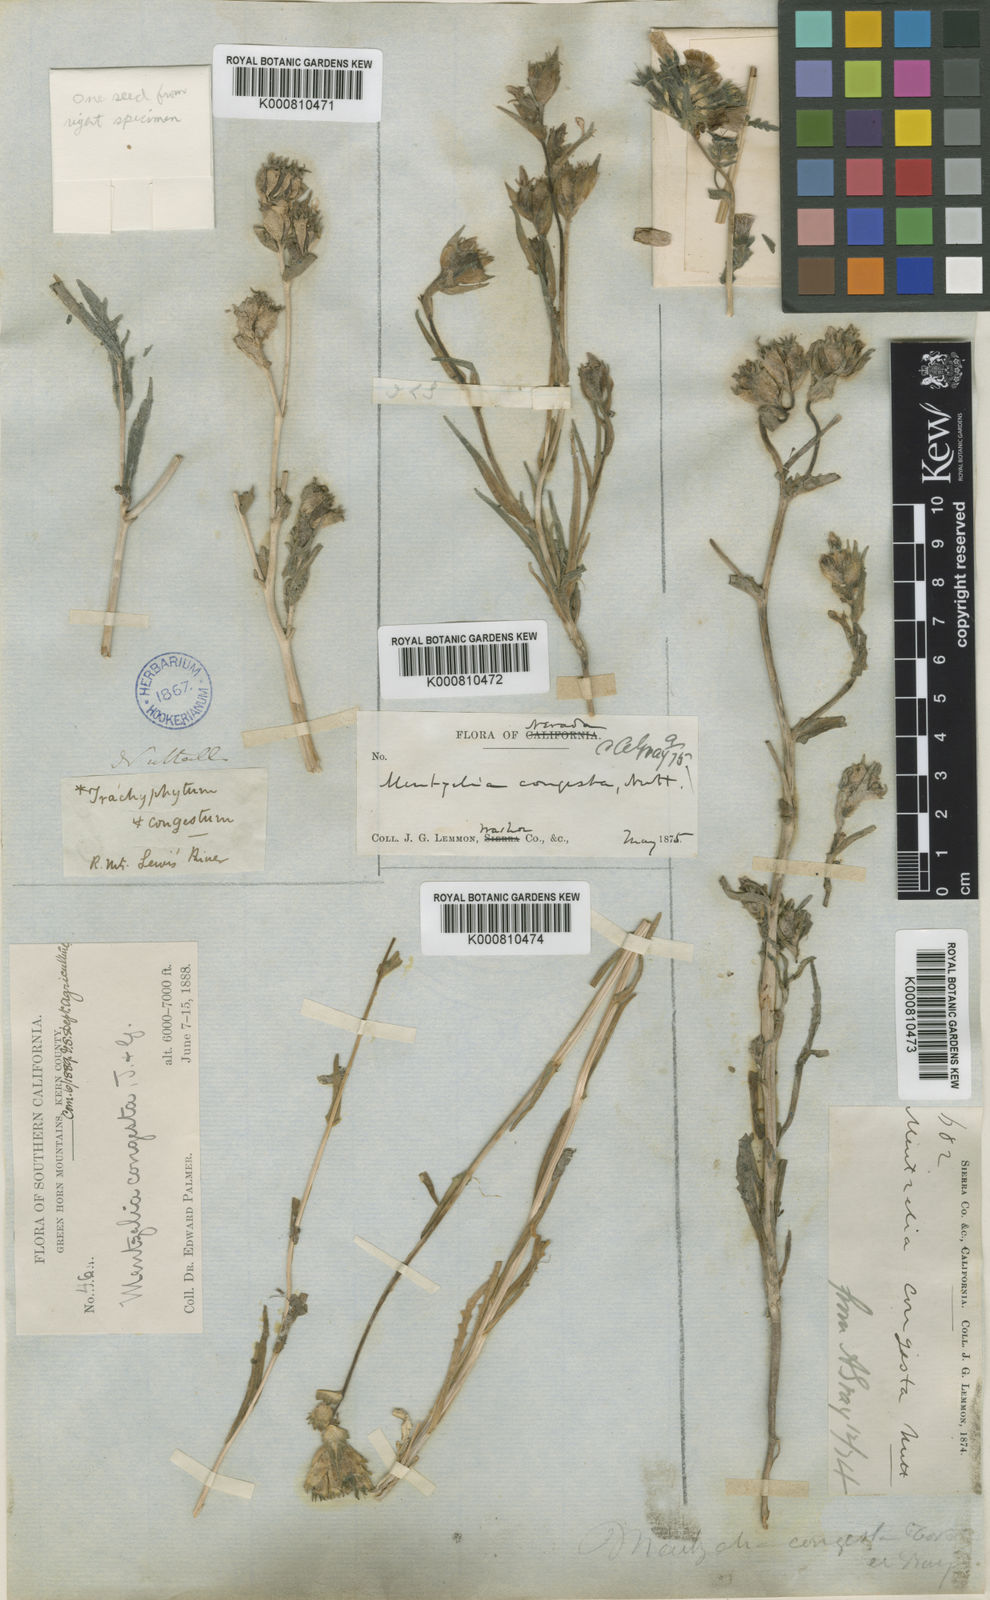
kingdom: Plantae
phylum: Tracheophyta
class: Magnoliopsida
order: Cornales
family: Loasaceae
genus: Mentzelia
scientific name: Mentzelia congesta
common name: Ventana blazingstar
